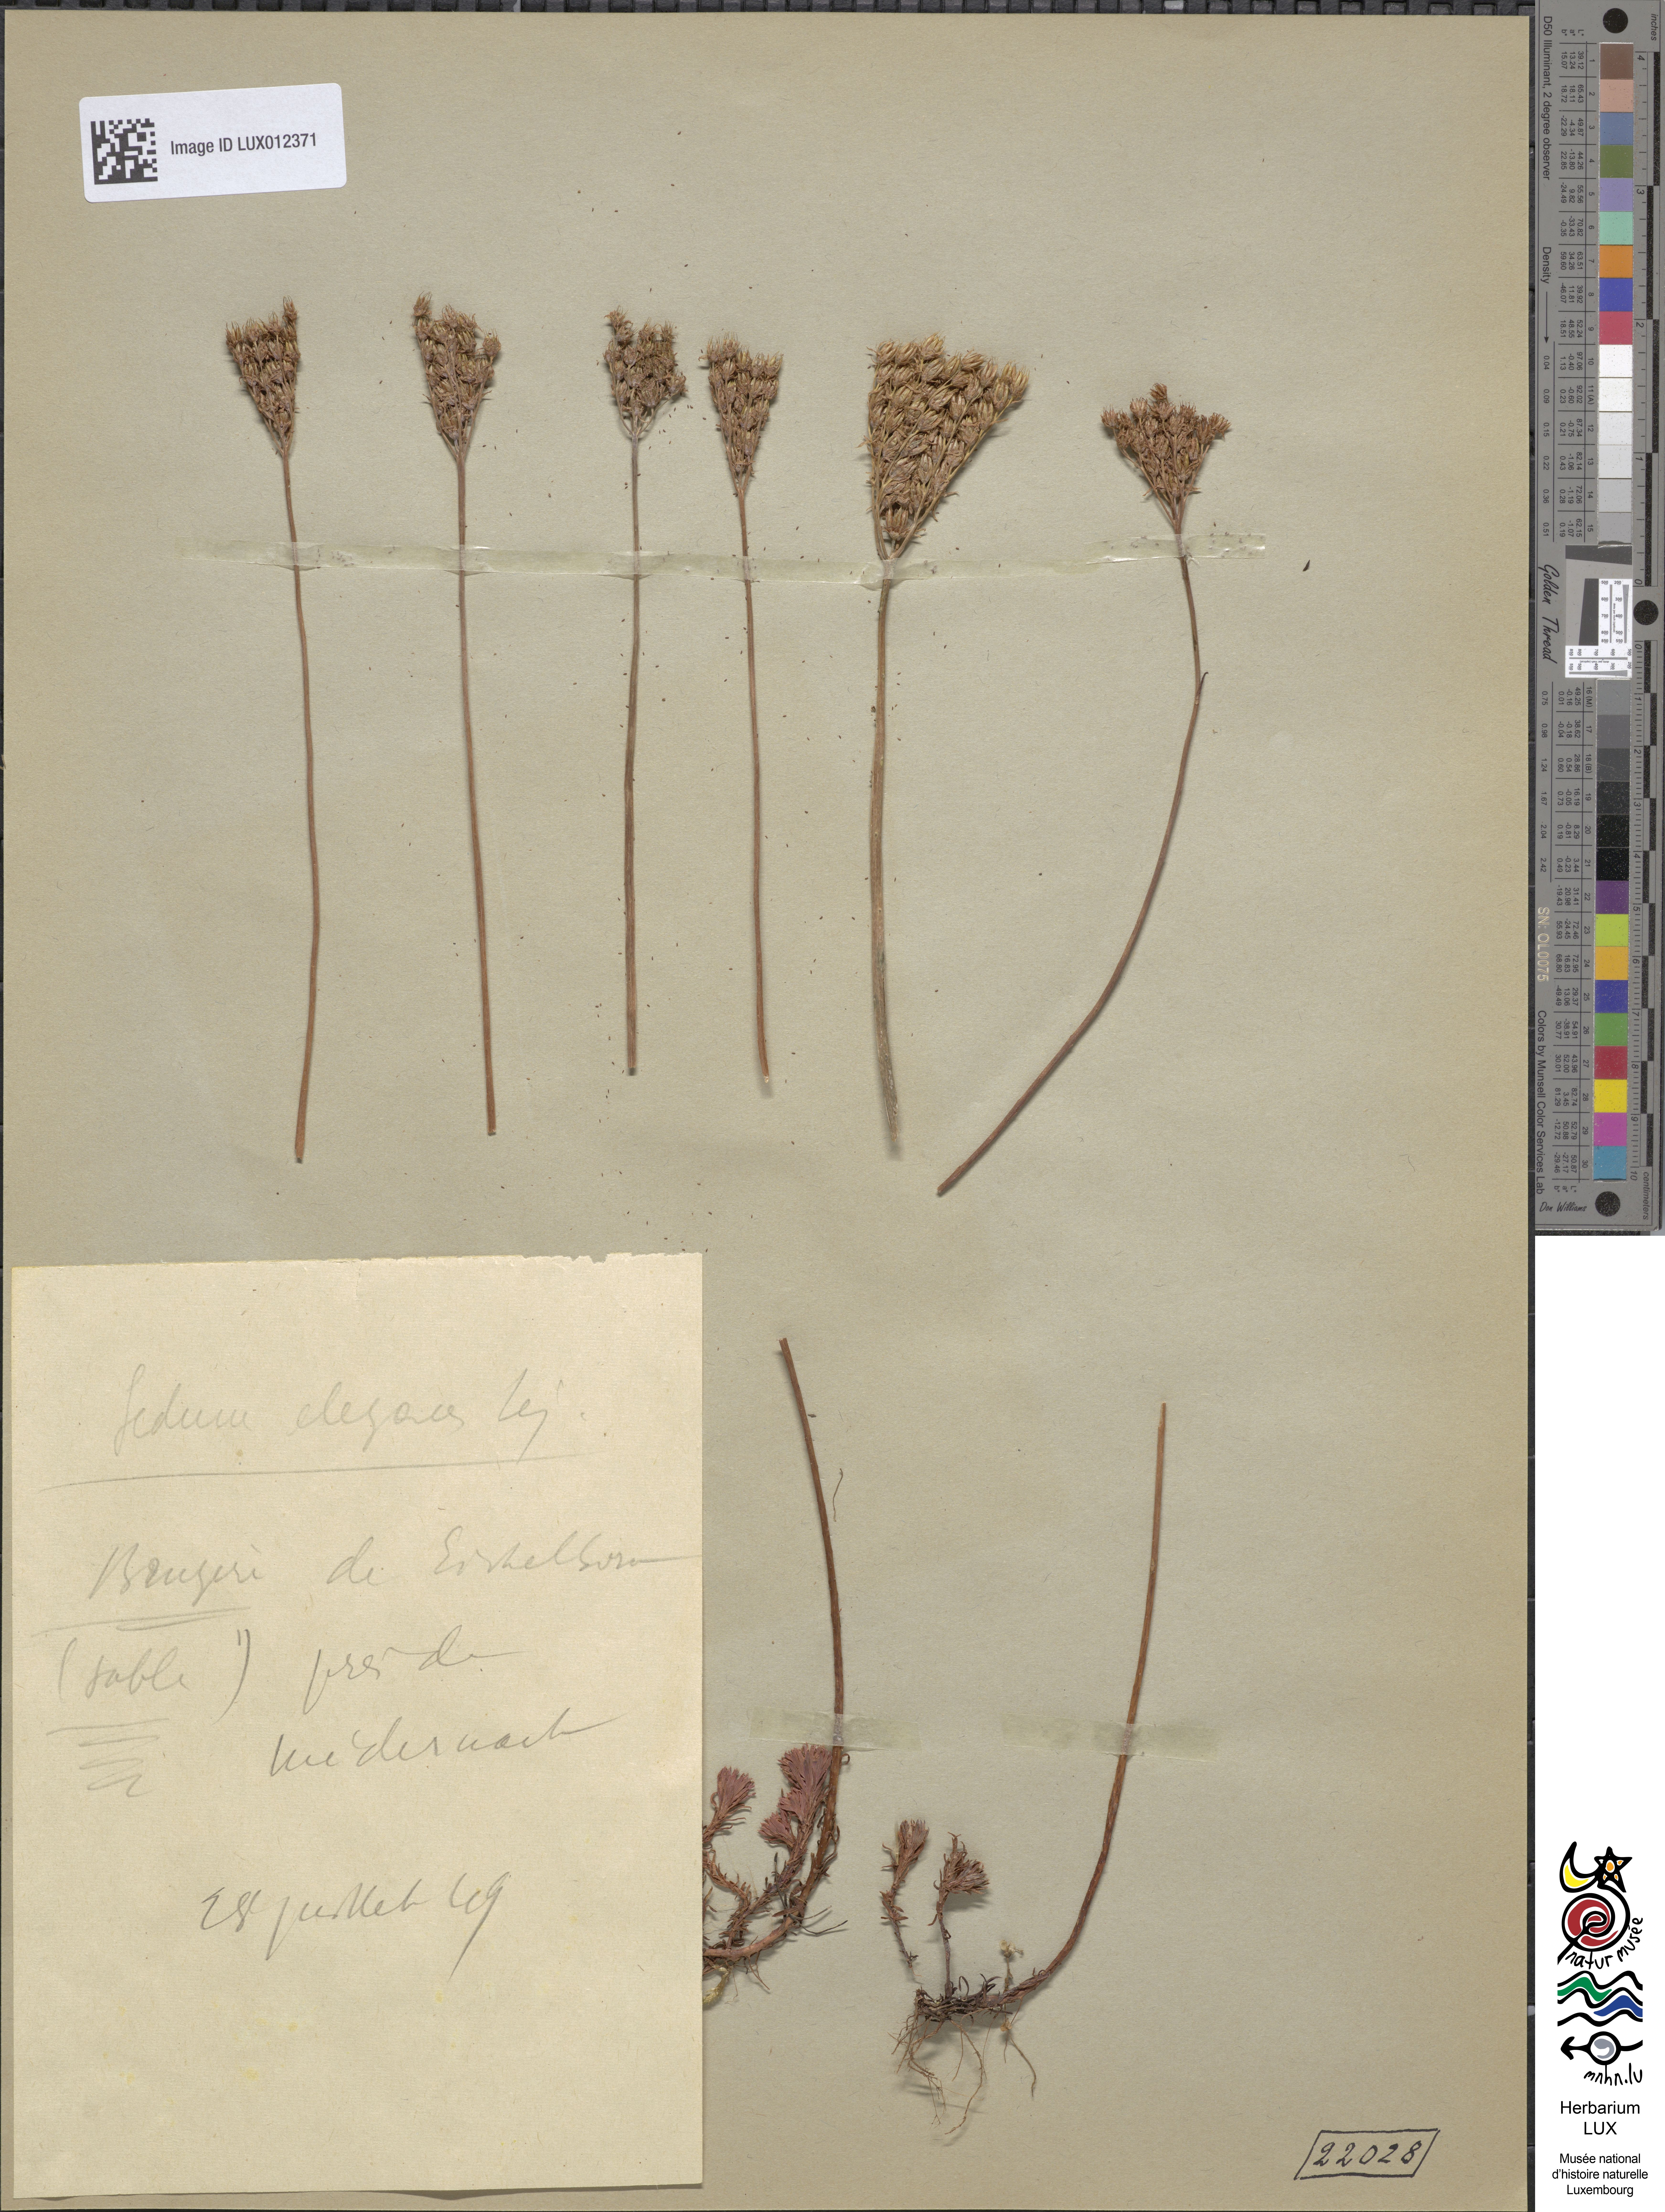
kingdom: Plantae
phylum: Tracheophyta
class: Magnoliopsida
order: Saxifragales
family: Crassulaceae
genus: Petrosedum
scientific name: Petrosedum forsterianum
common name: Forster's stonecrop
